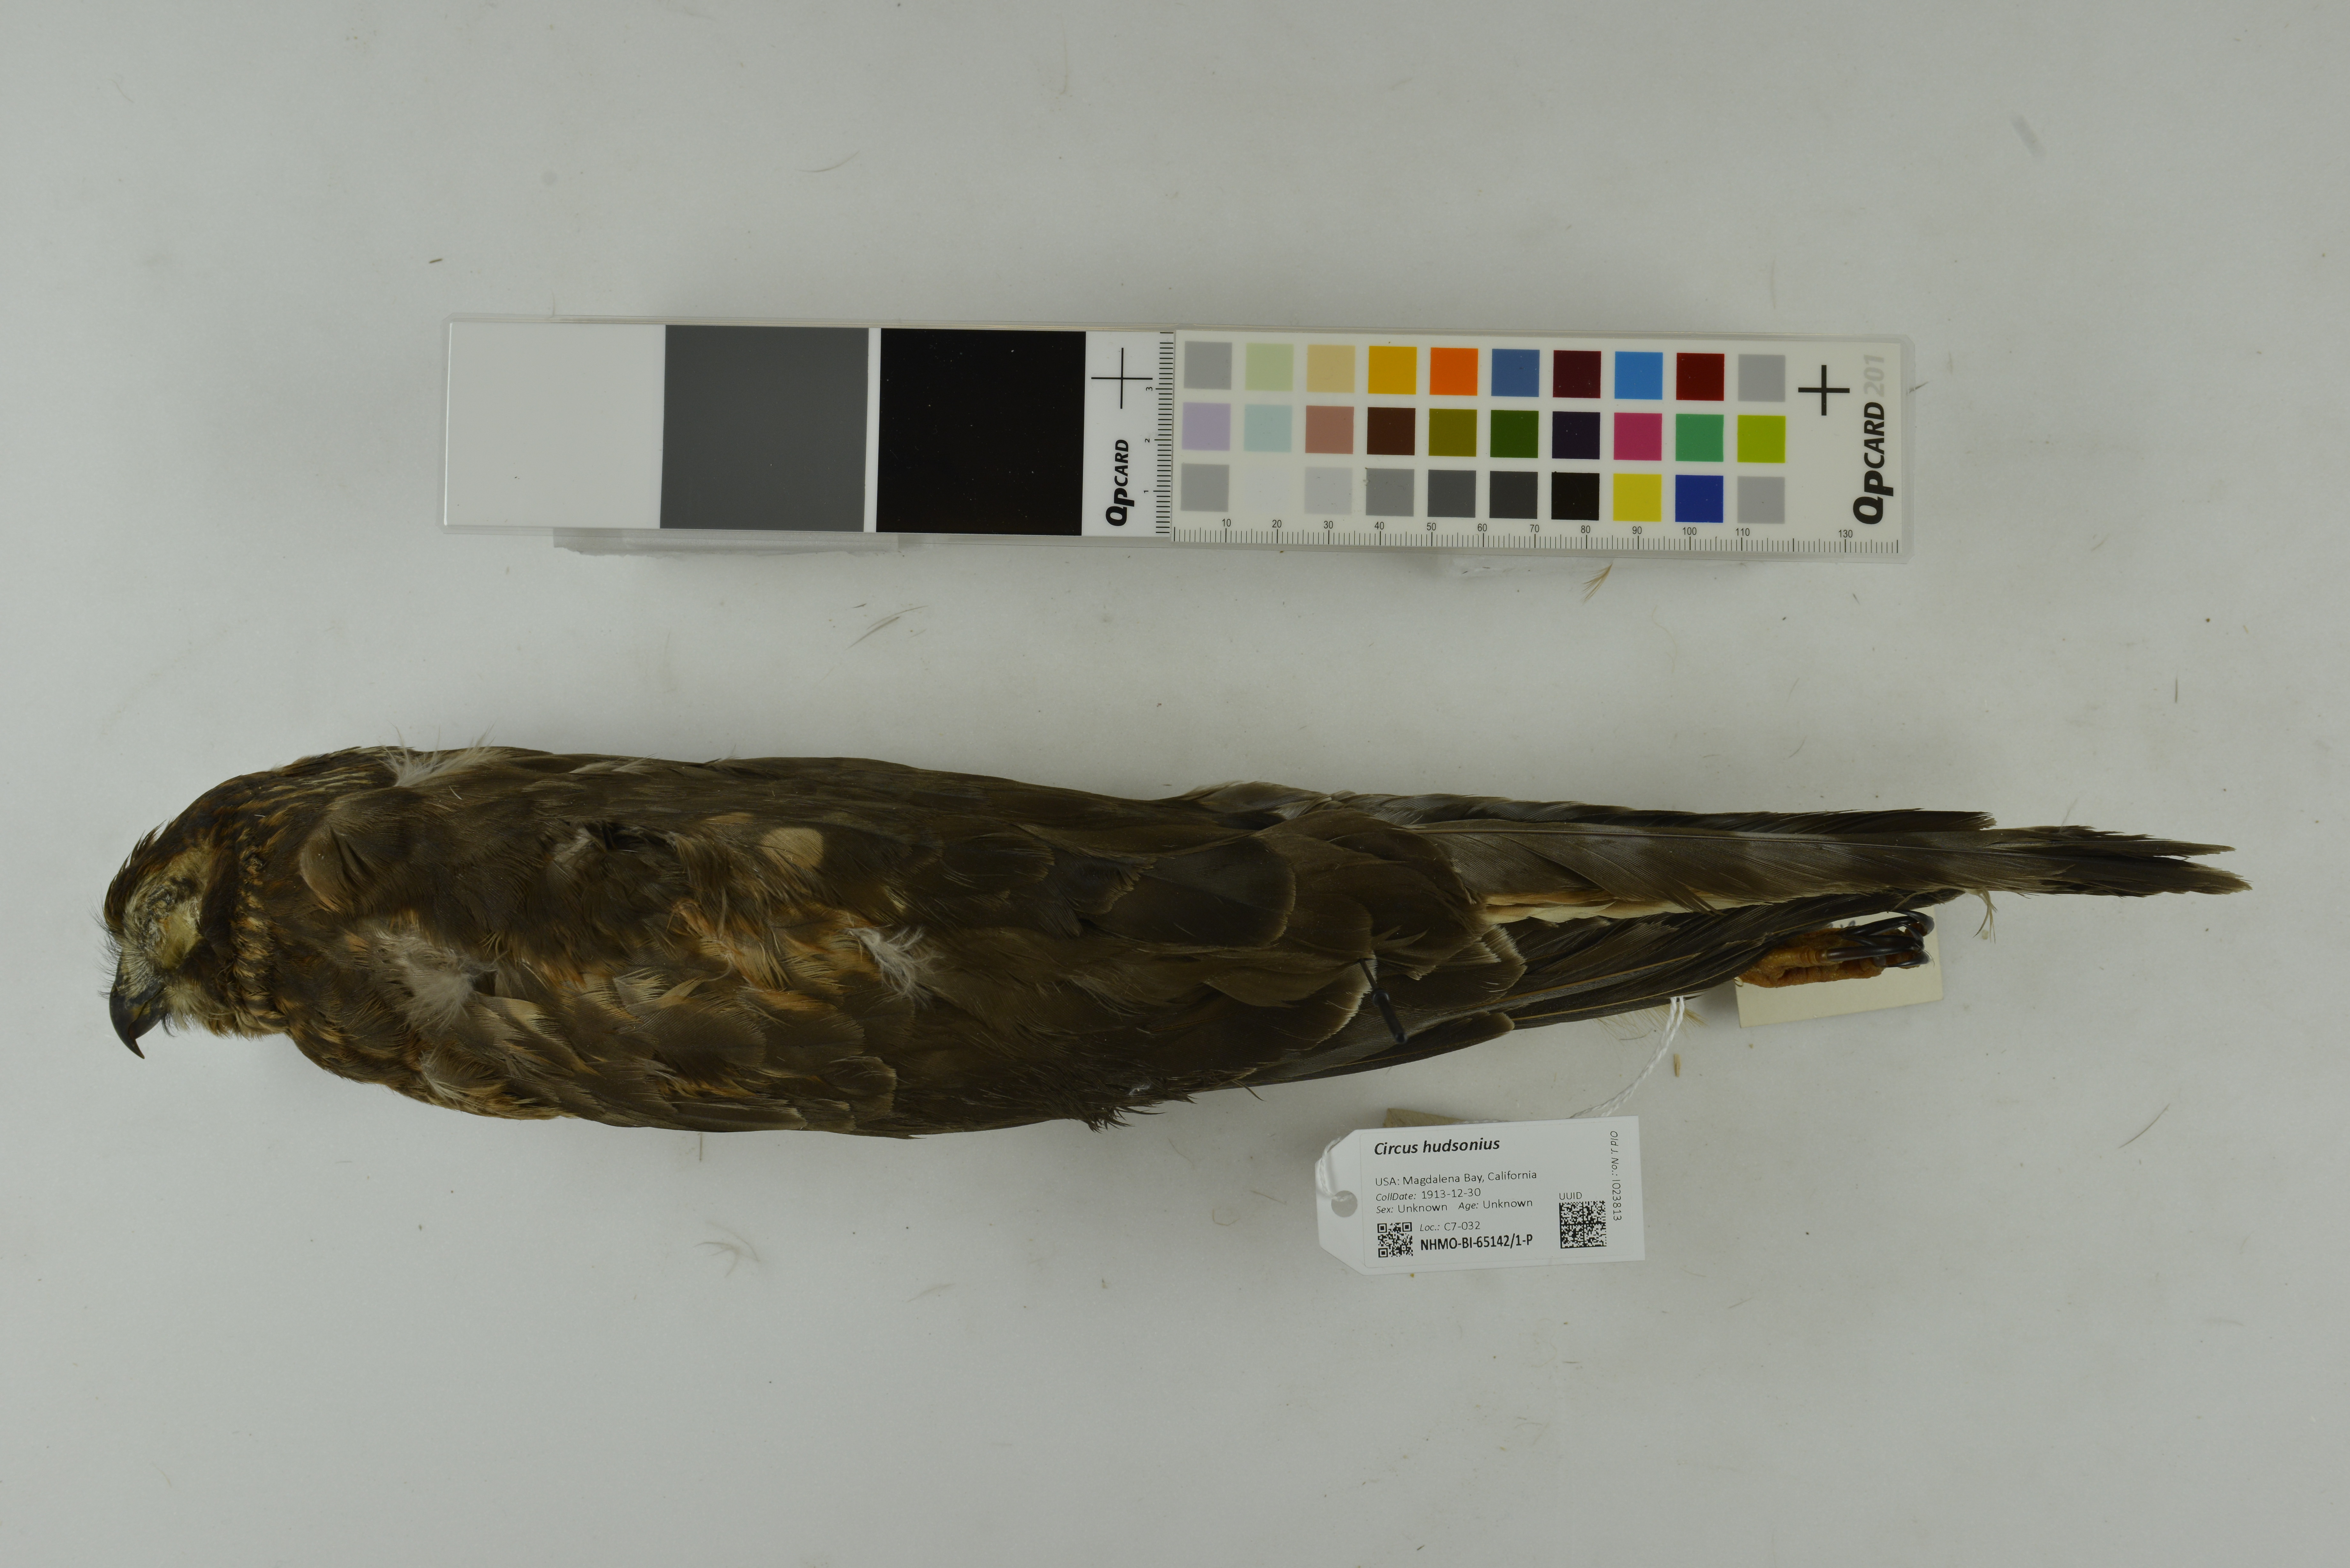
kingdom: Animalia
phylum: Chordata
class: Aves
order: Accipitriformes
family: Accipitridae
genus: Circus
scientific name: Circus cyaneus
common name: Hen harrier
